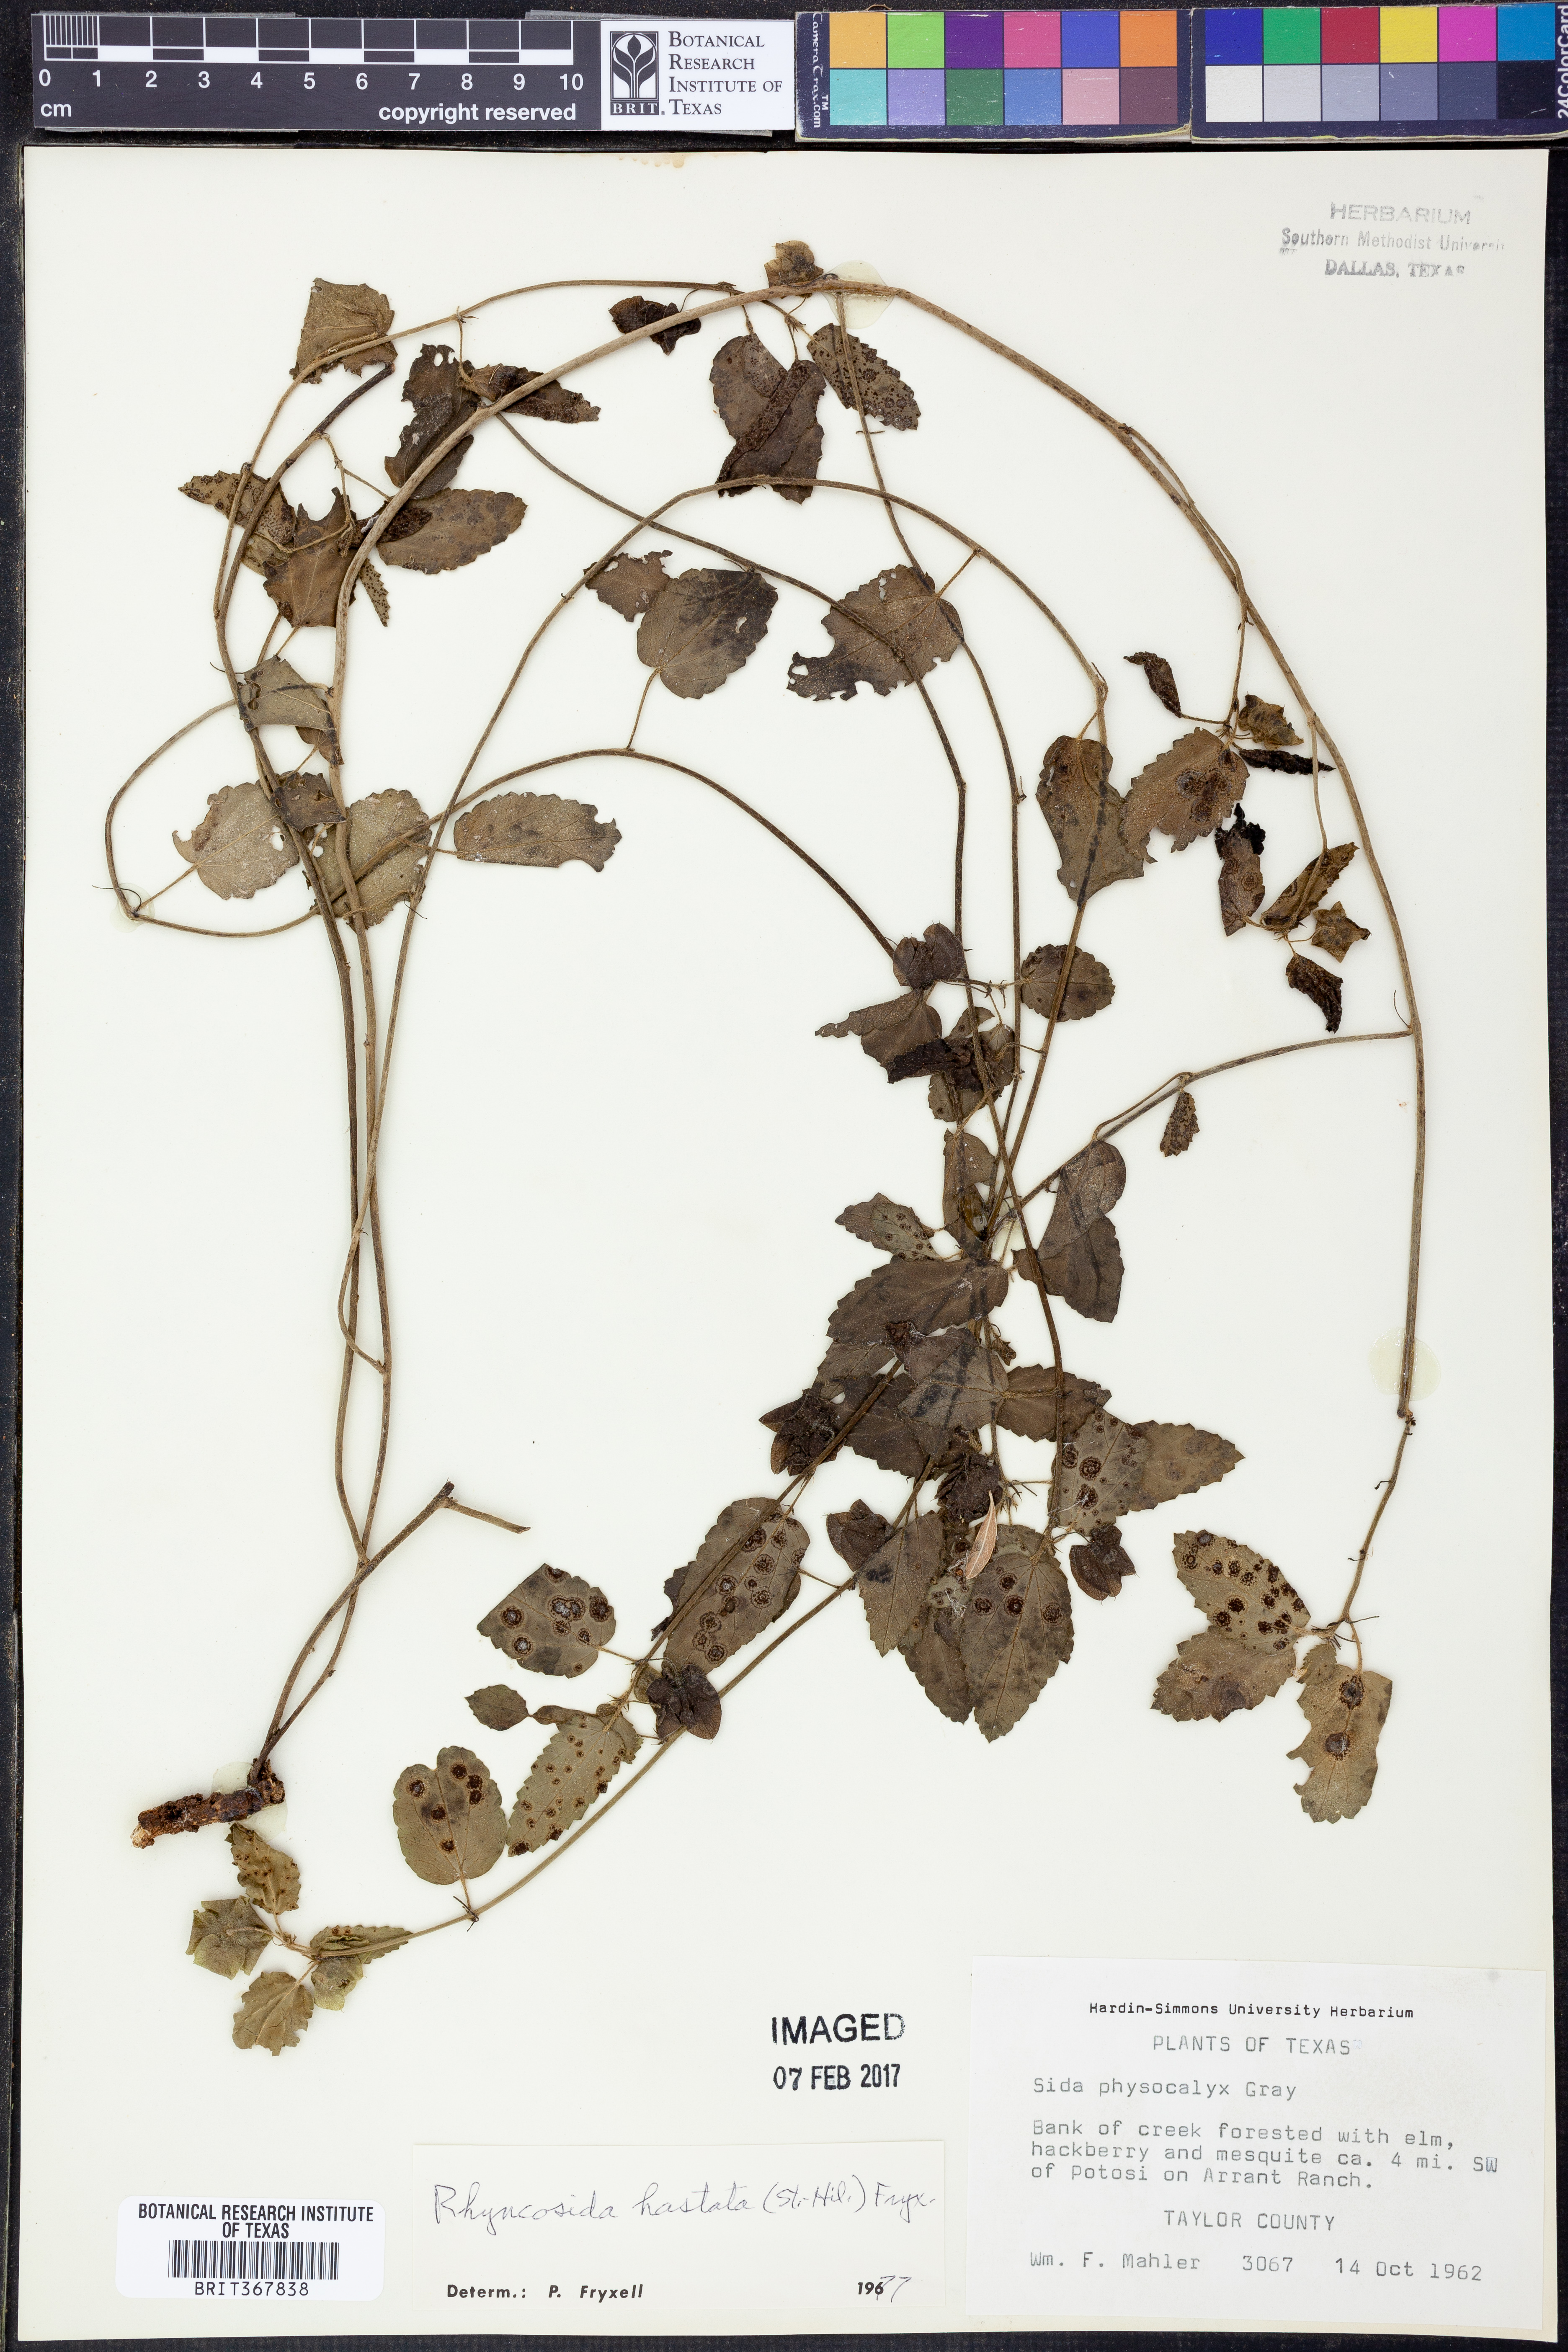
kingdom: Plantae
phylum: Tracheophyta
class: Magnoliopsida
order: Malvales
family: Malvaceae
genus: Rhynchosida
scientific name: Rhynchosida
